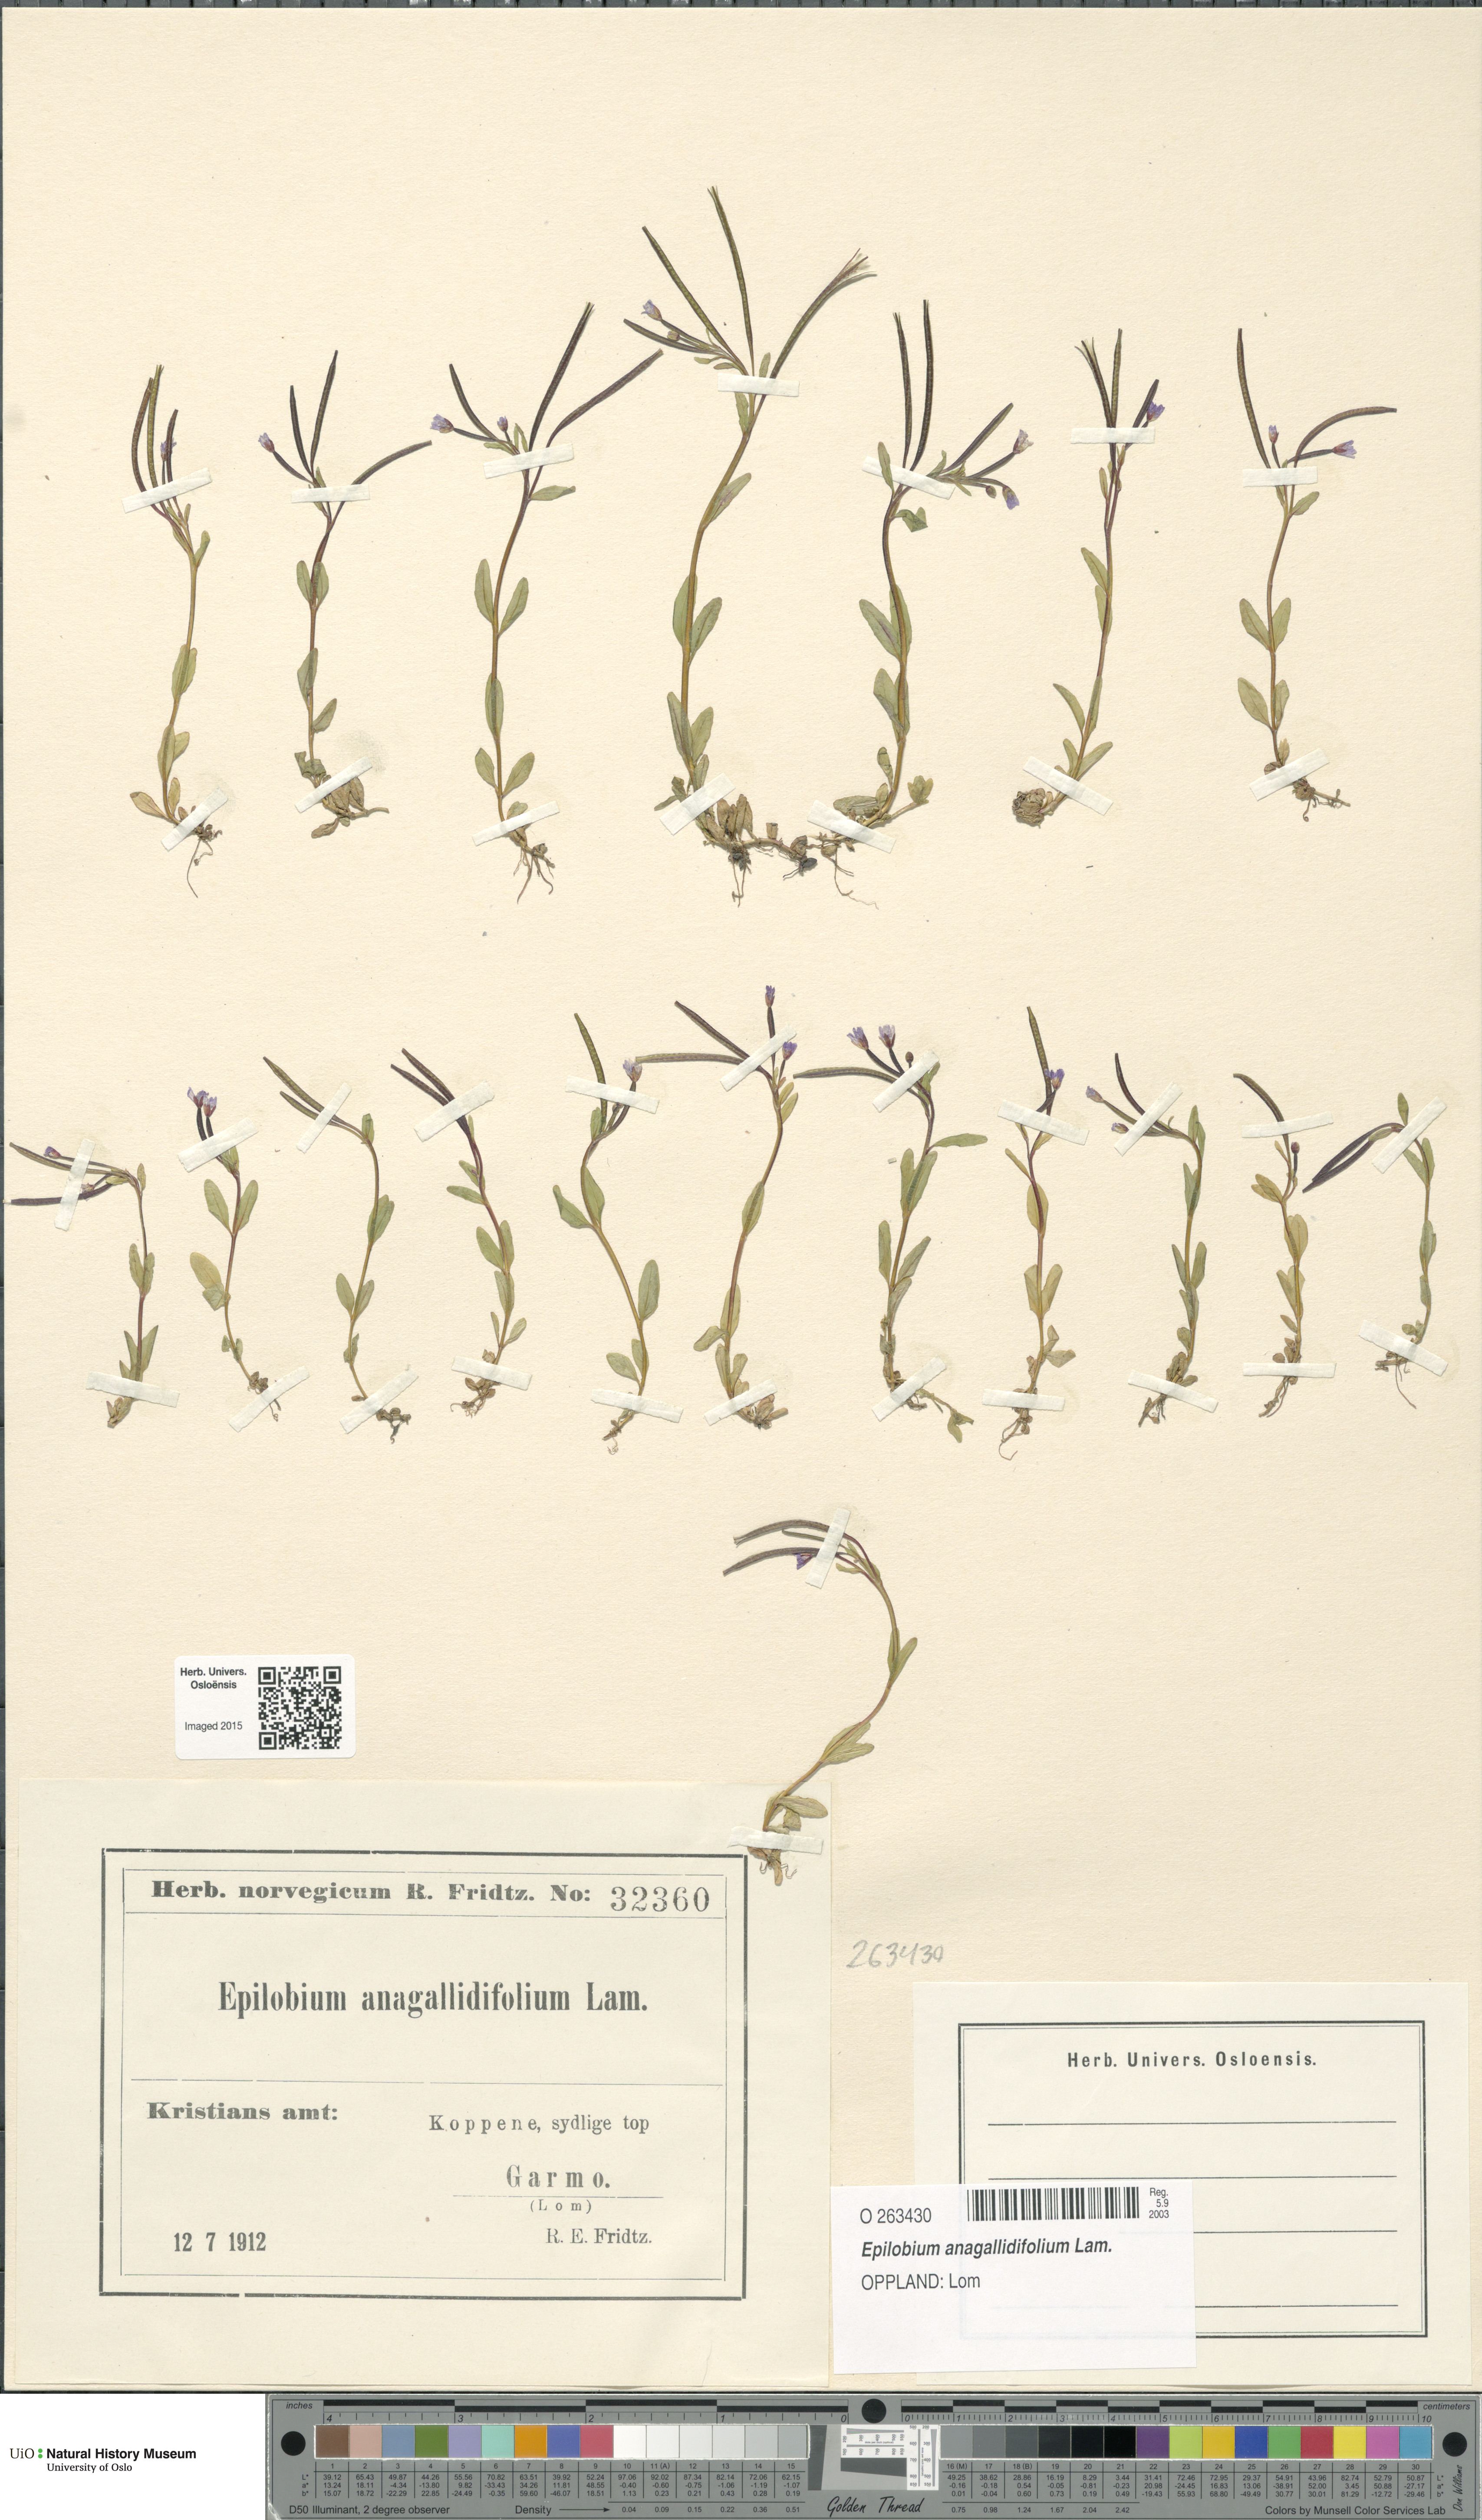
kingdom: Plantae
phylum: Tracheophyta
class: Magnoliopsida
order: Myrtales
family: Onagraceae
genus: Epilobium
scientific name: Epilobium anagallidifolium
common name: Alpine willowherb
